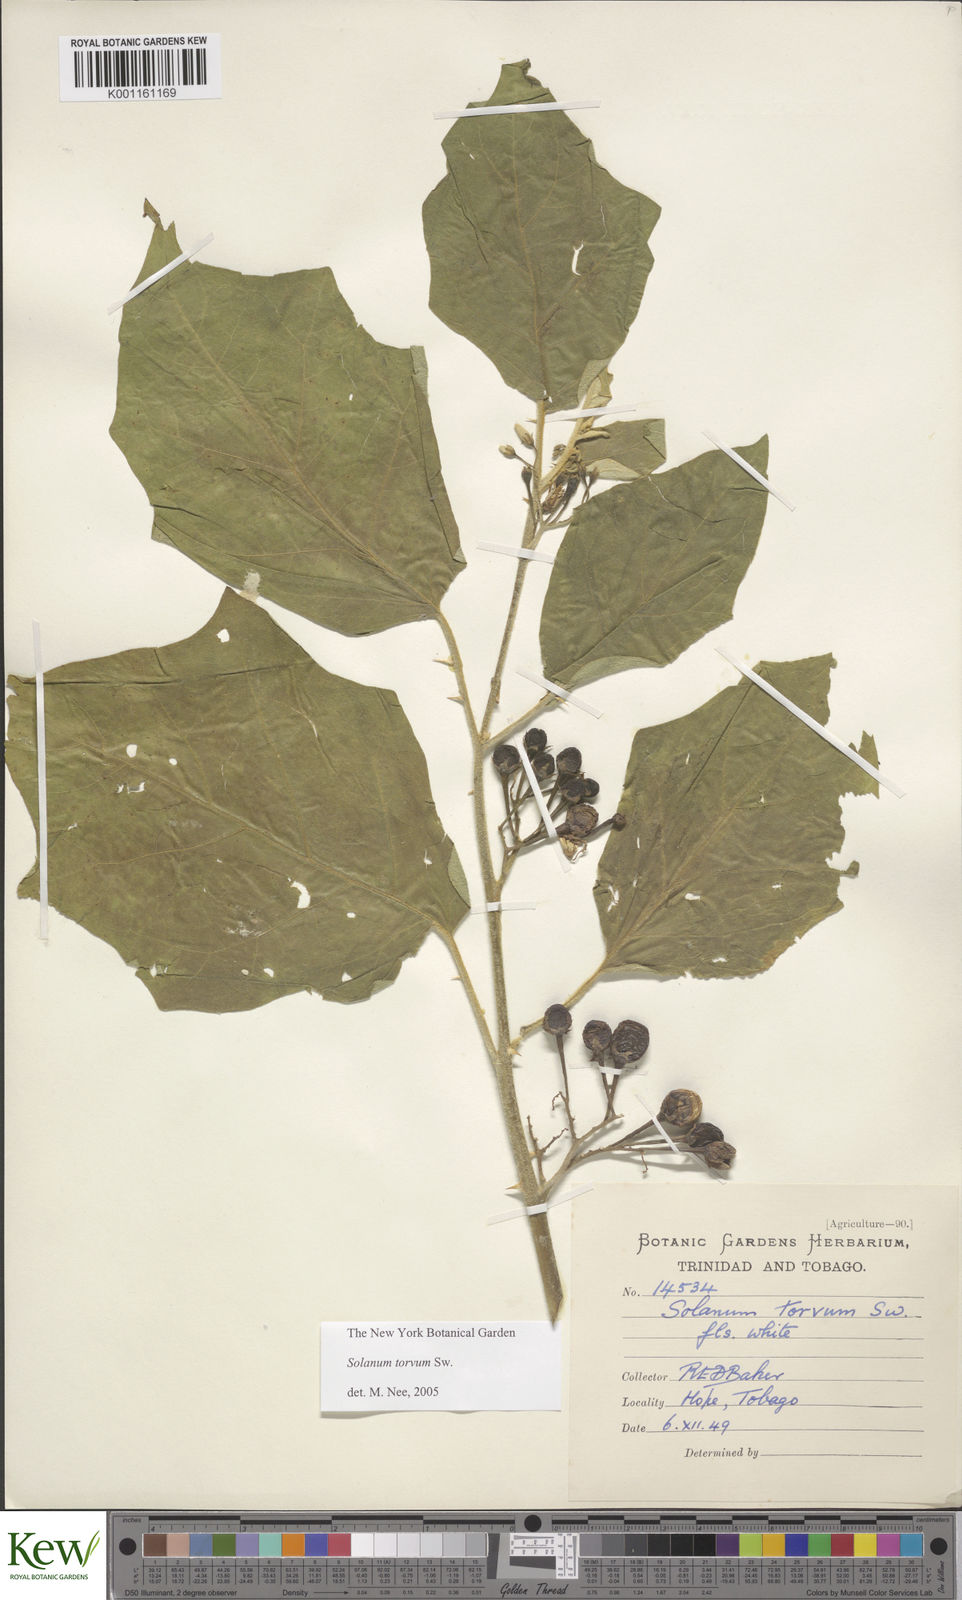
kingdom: Plantae
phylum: Tracheophyta
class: Magnoliopsida
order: Solanales
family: Solanaceae
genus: Solanum
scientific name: Solanum torvum
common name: Turkey berry
